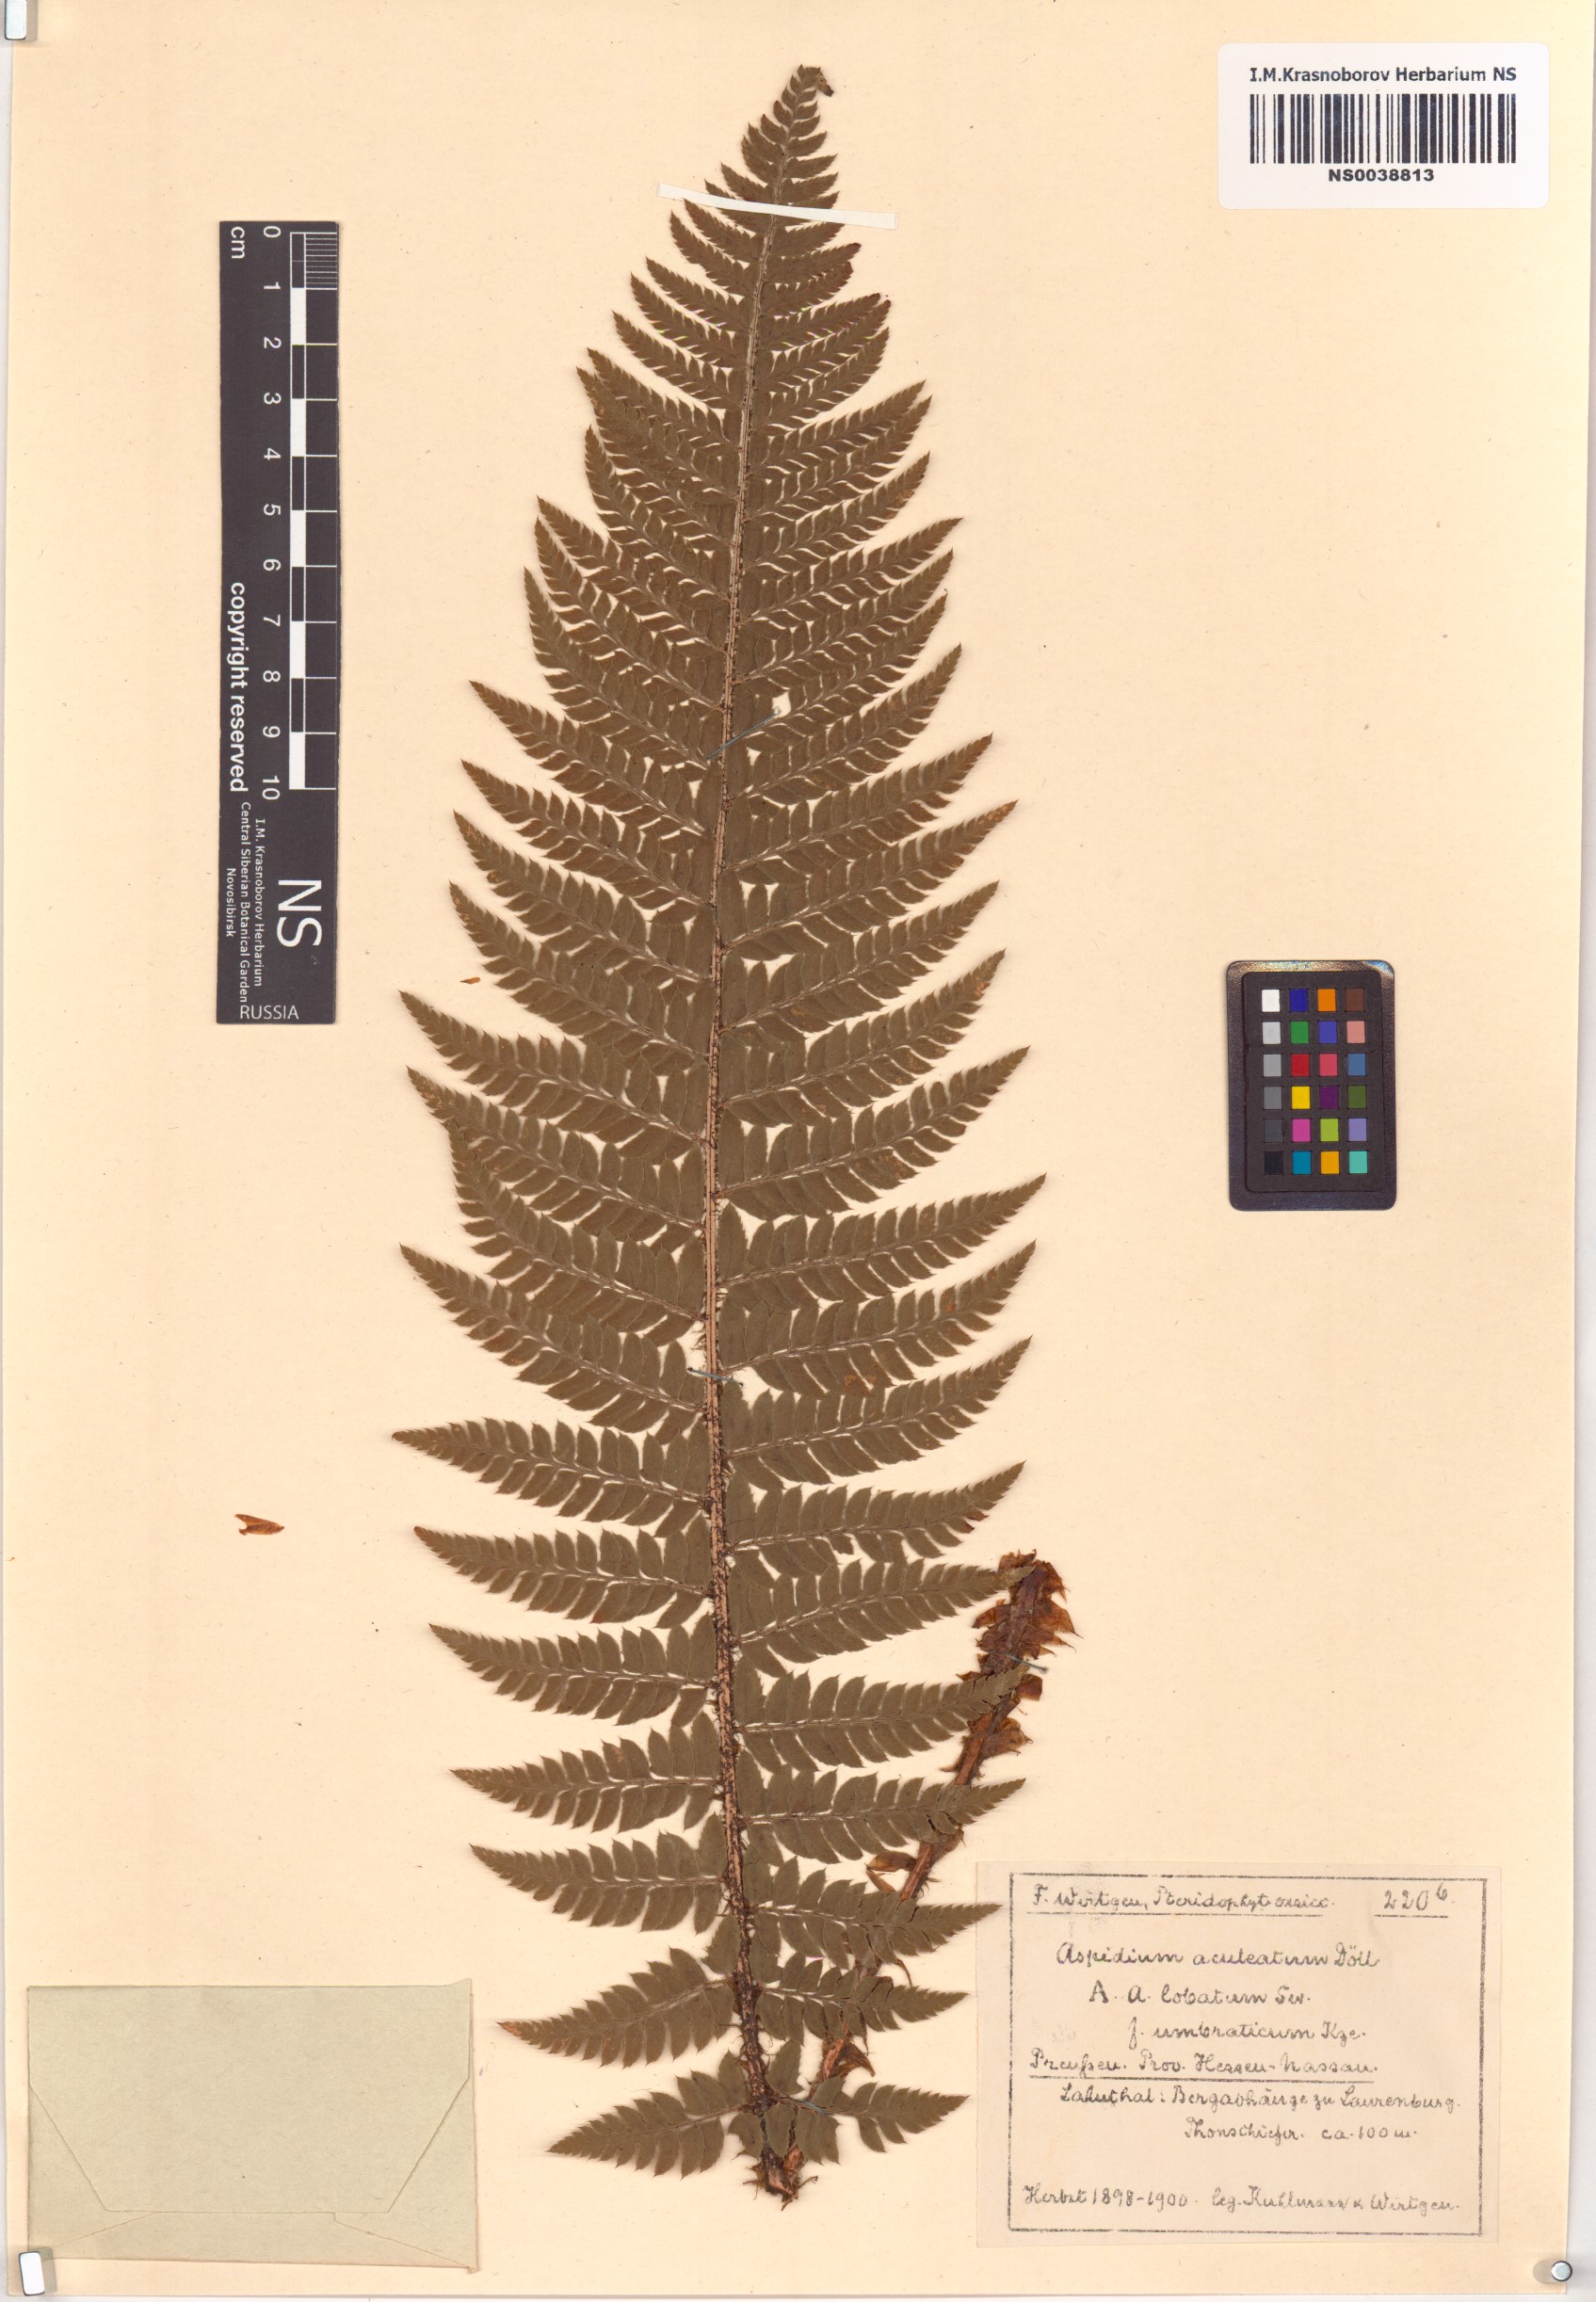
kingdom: Plantae
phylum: Tracheophyta
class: Polypodiopsida
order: Polypodiales
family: Dryopteridaceae
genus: Polystichum
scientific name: Polystichum aculeatum
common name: Hard shield-fern
